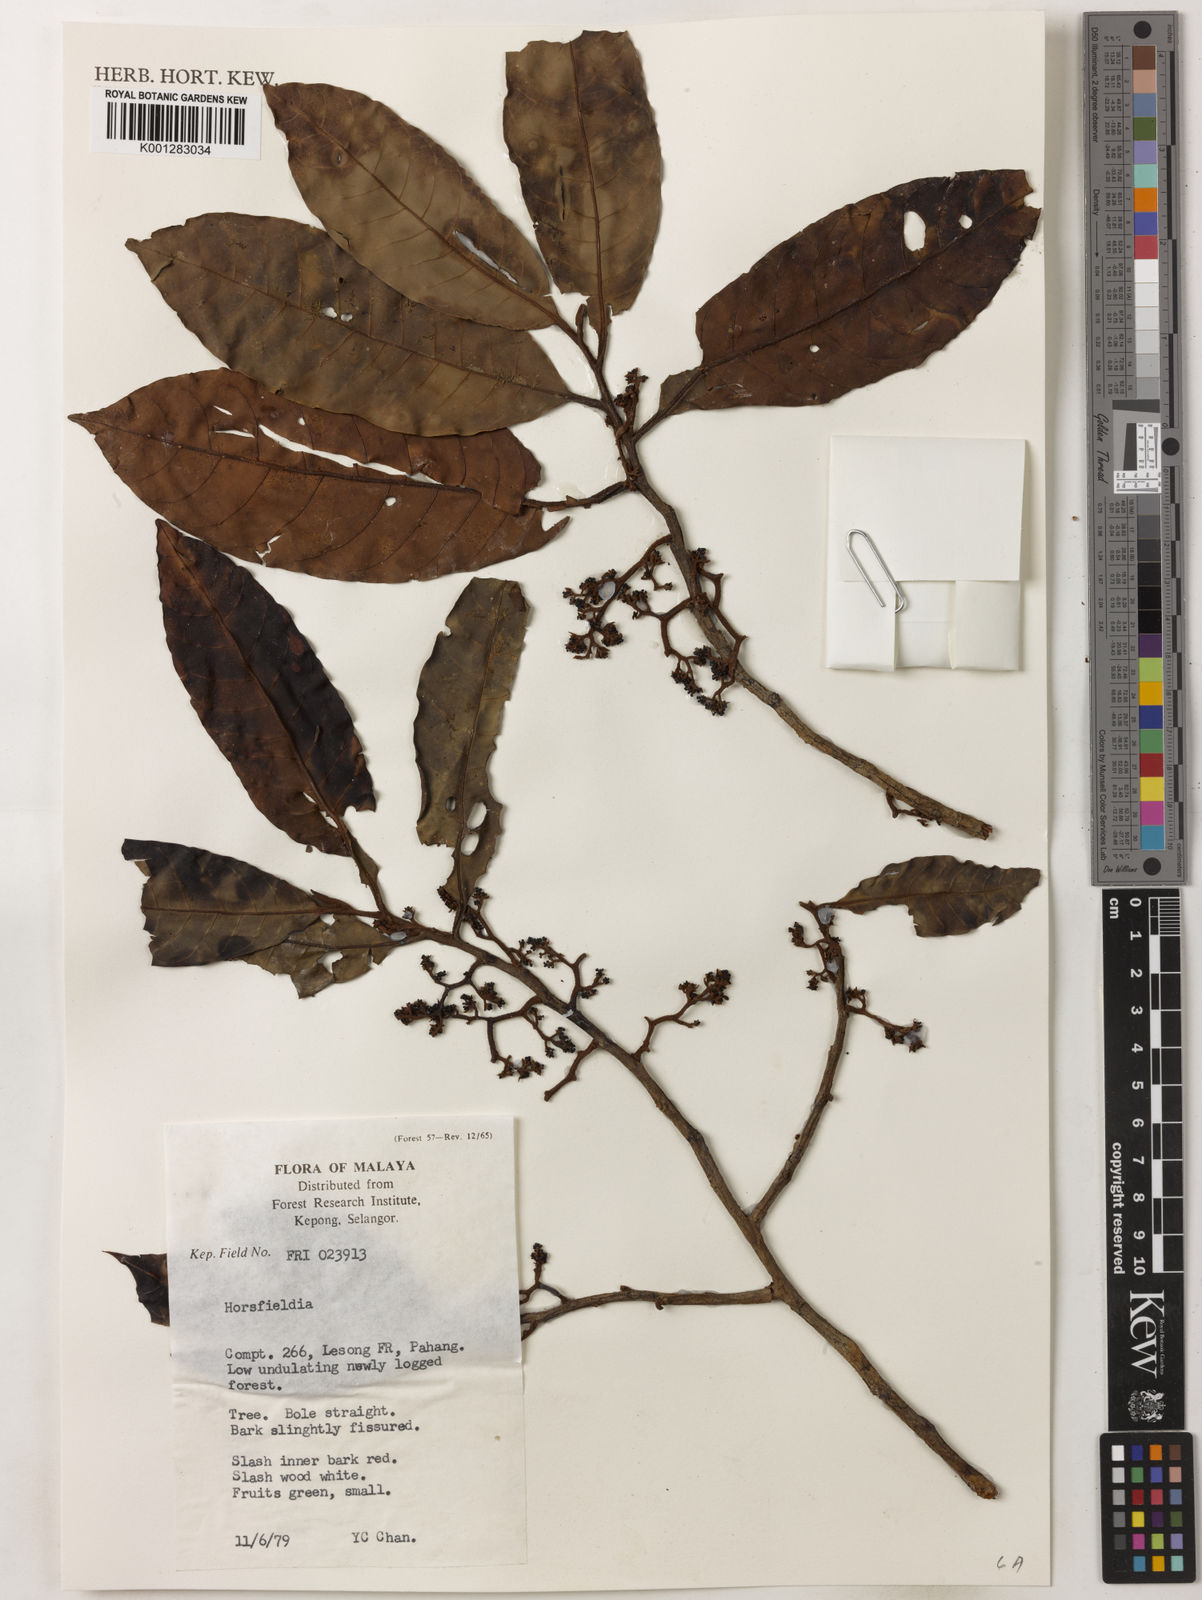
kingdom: Plantae
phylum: Tracheophyta
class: Magnoliopsida
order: Magnoliales
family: Myristicaceae
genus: Horsfieldia
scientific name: Horsfieldia
